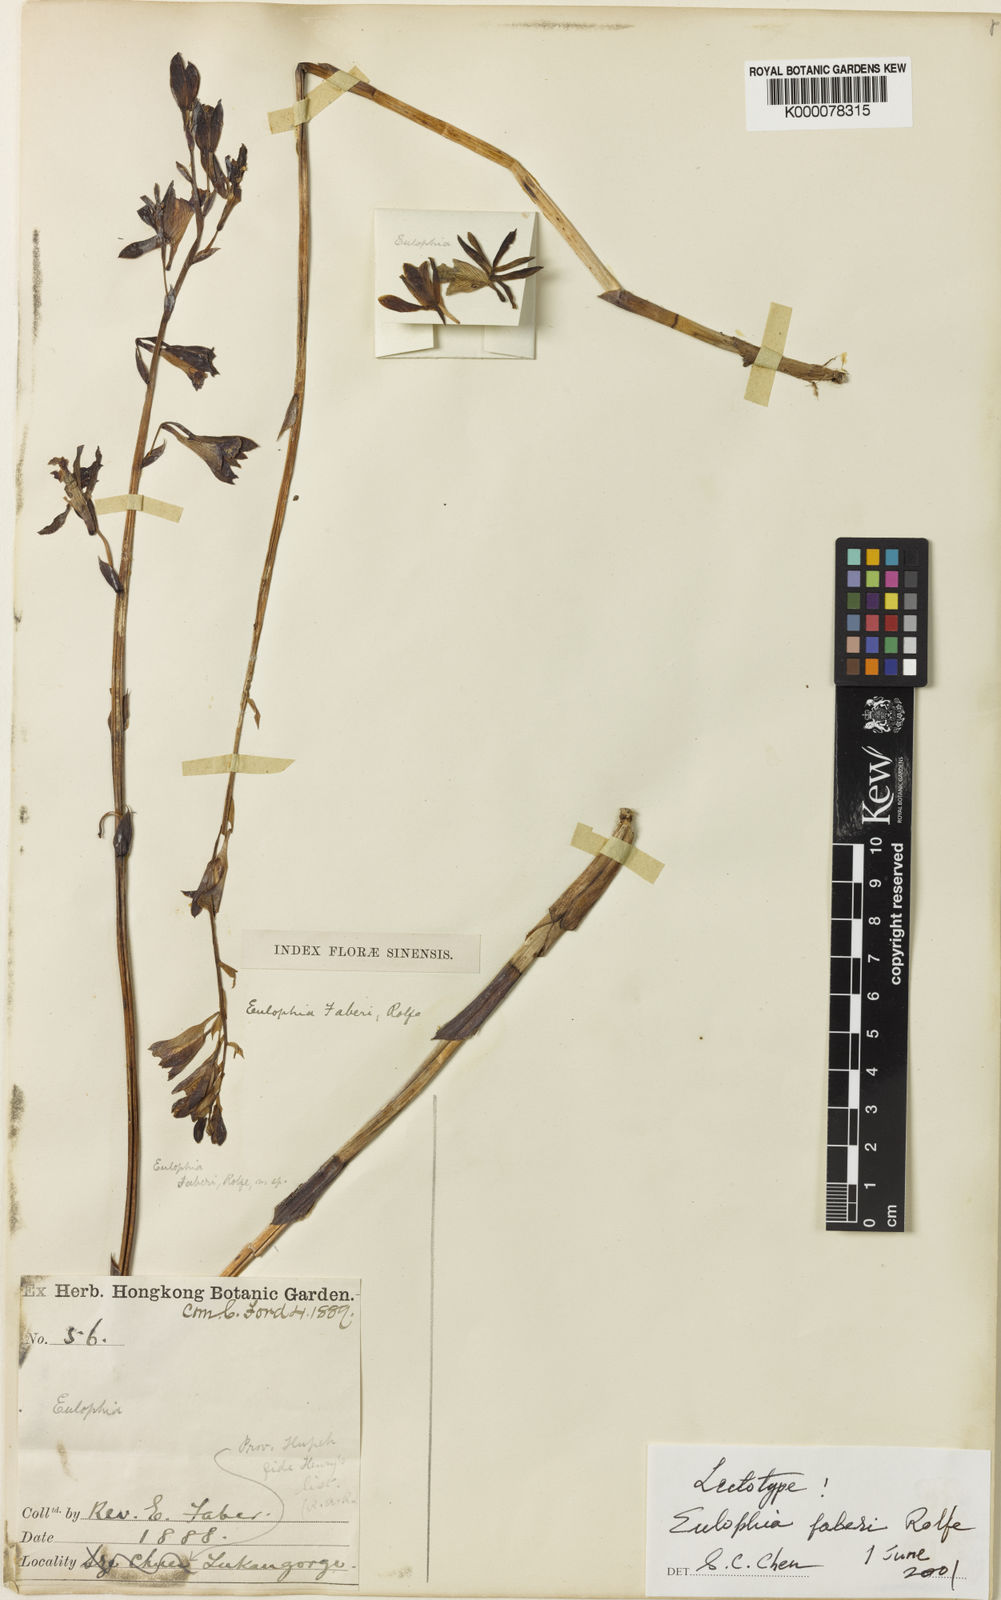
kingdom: Plantae
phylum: Tracheophyta
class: Liliopsida
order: Asparagales
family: Orchidaceae
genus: Eulophia
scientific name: Eulophia dabia
